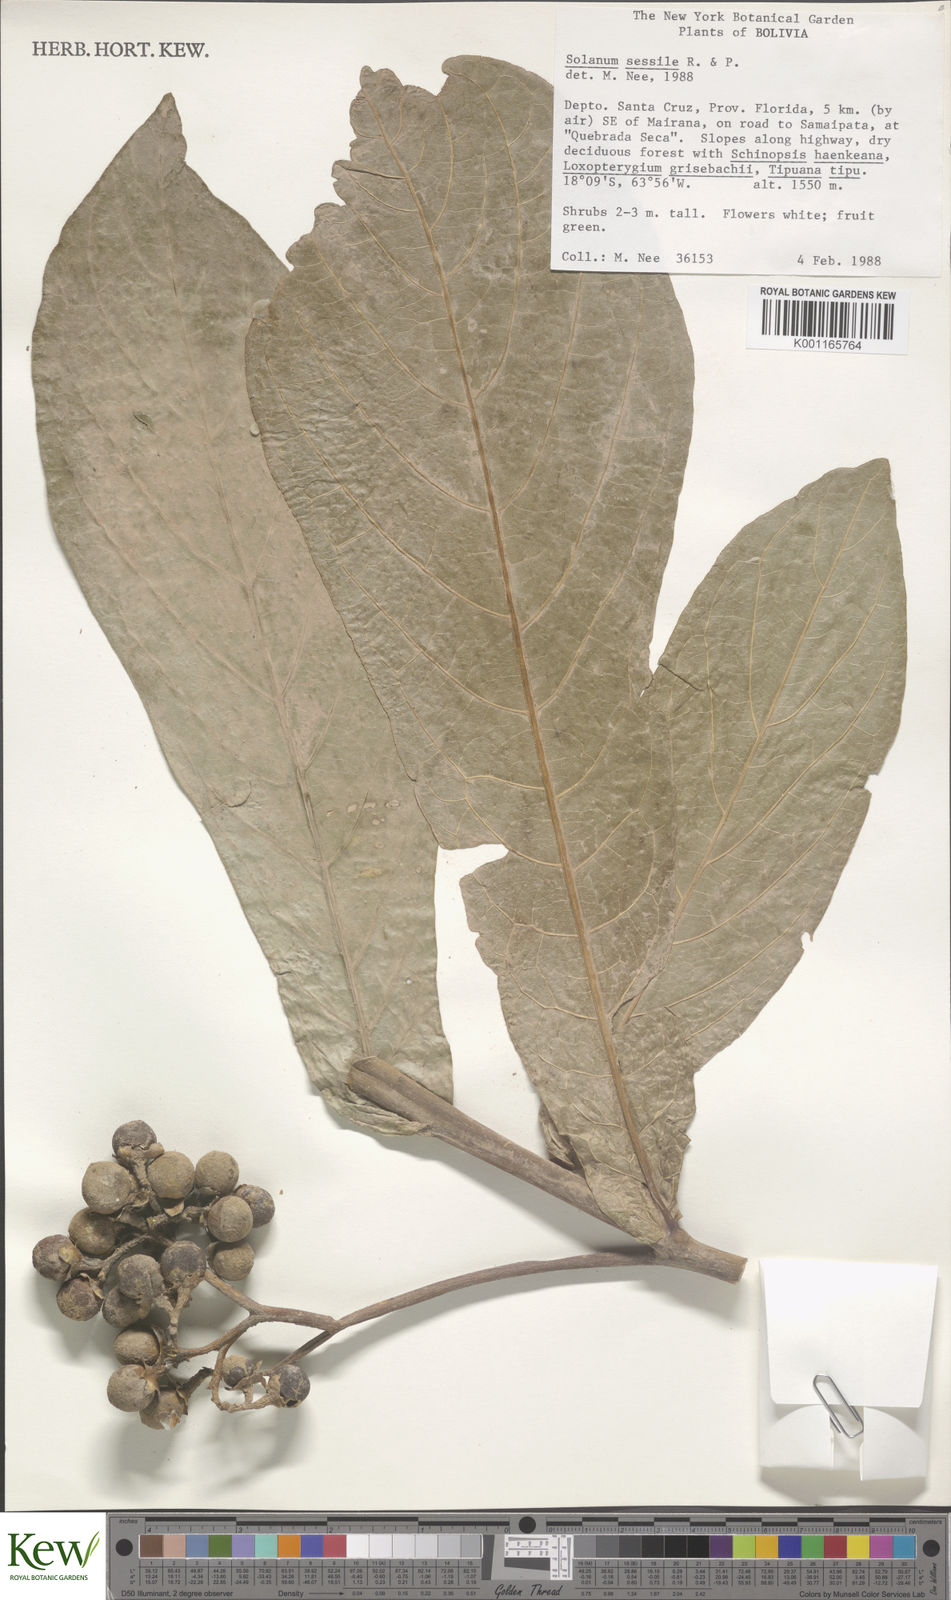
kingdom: Plantae
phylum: Tracheophyta
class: Magnoliopsida
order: Solanales
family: Solanaceae
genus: Solanum
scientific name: Solanum sessile
